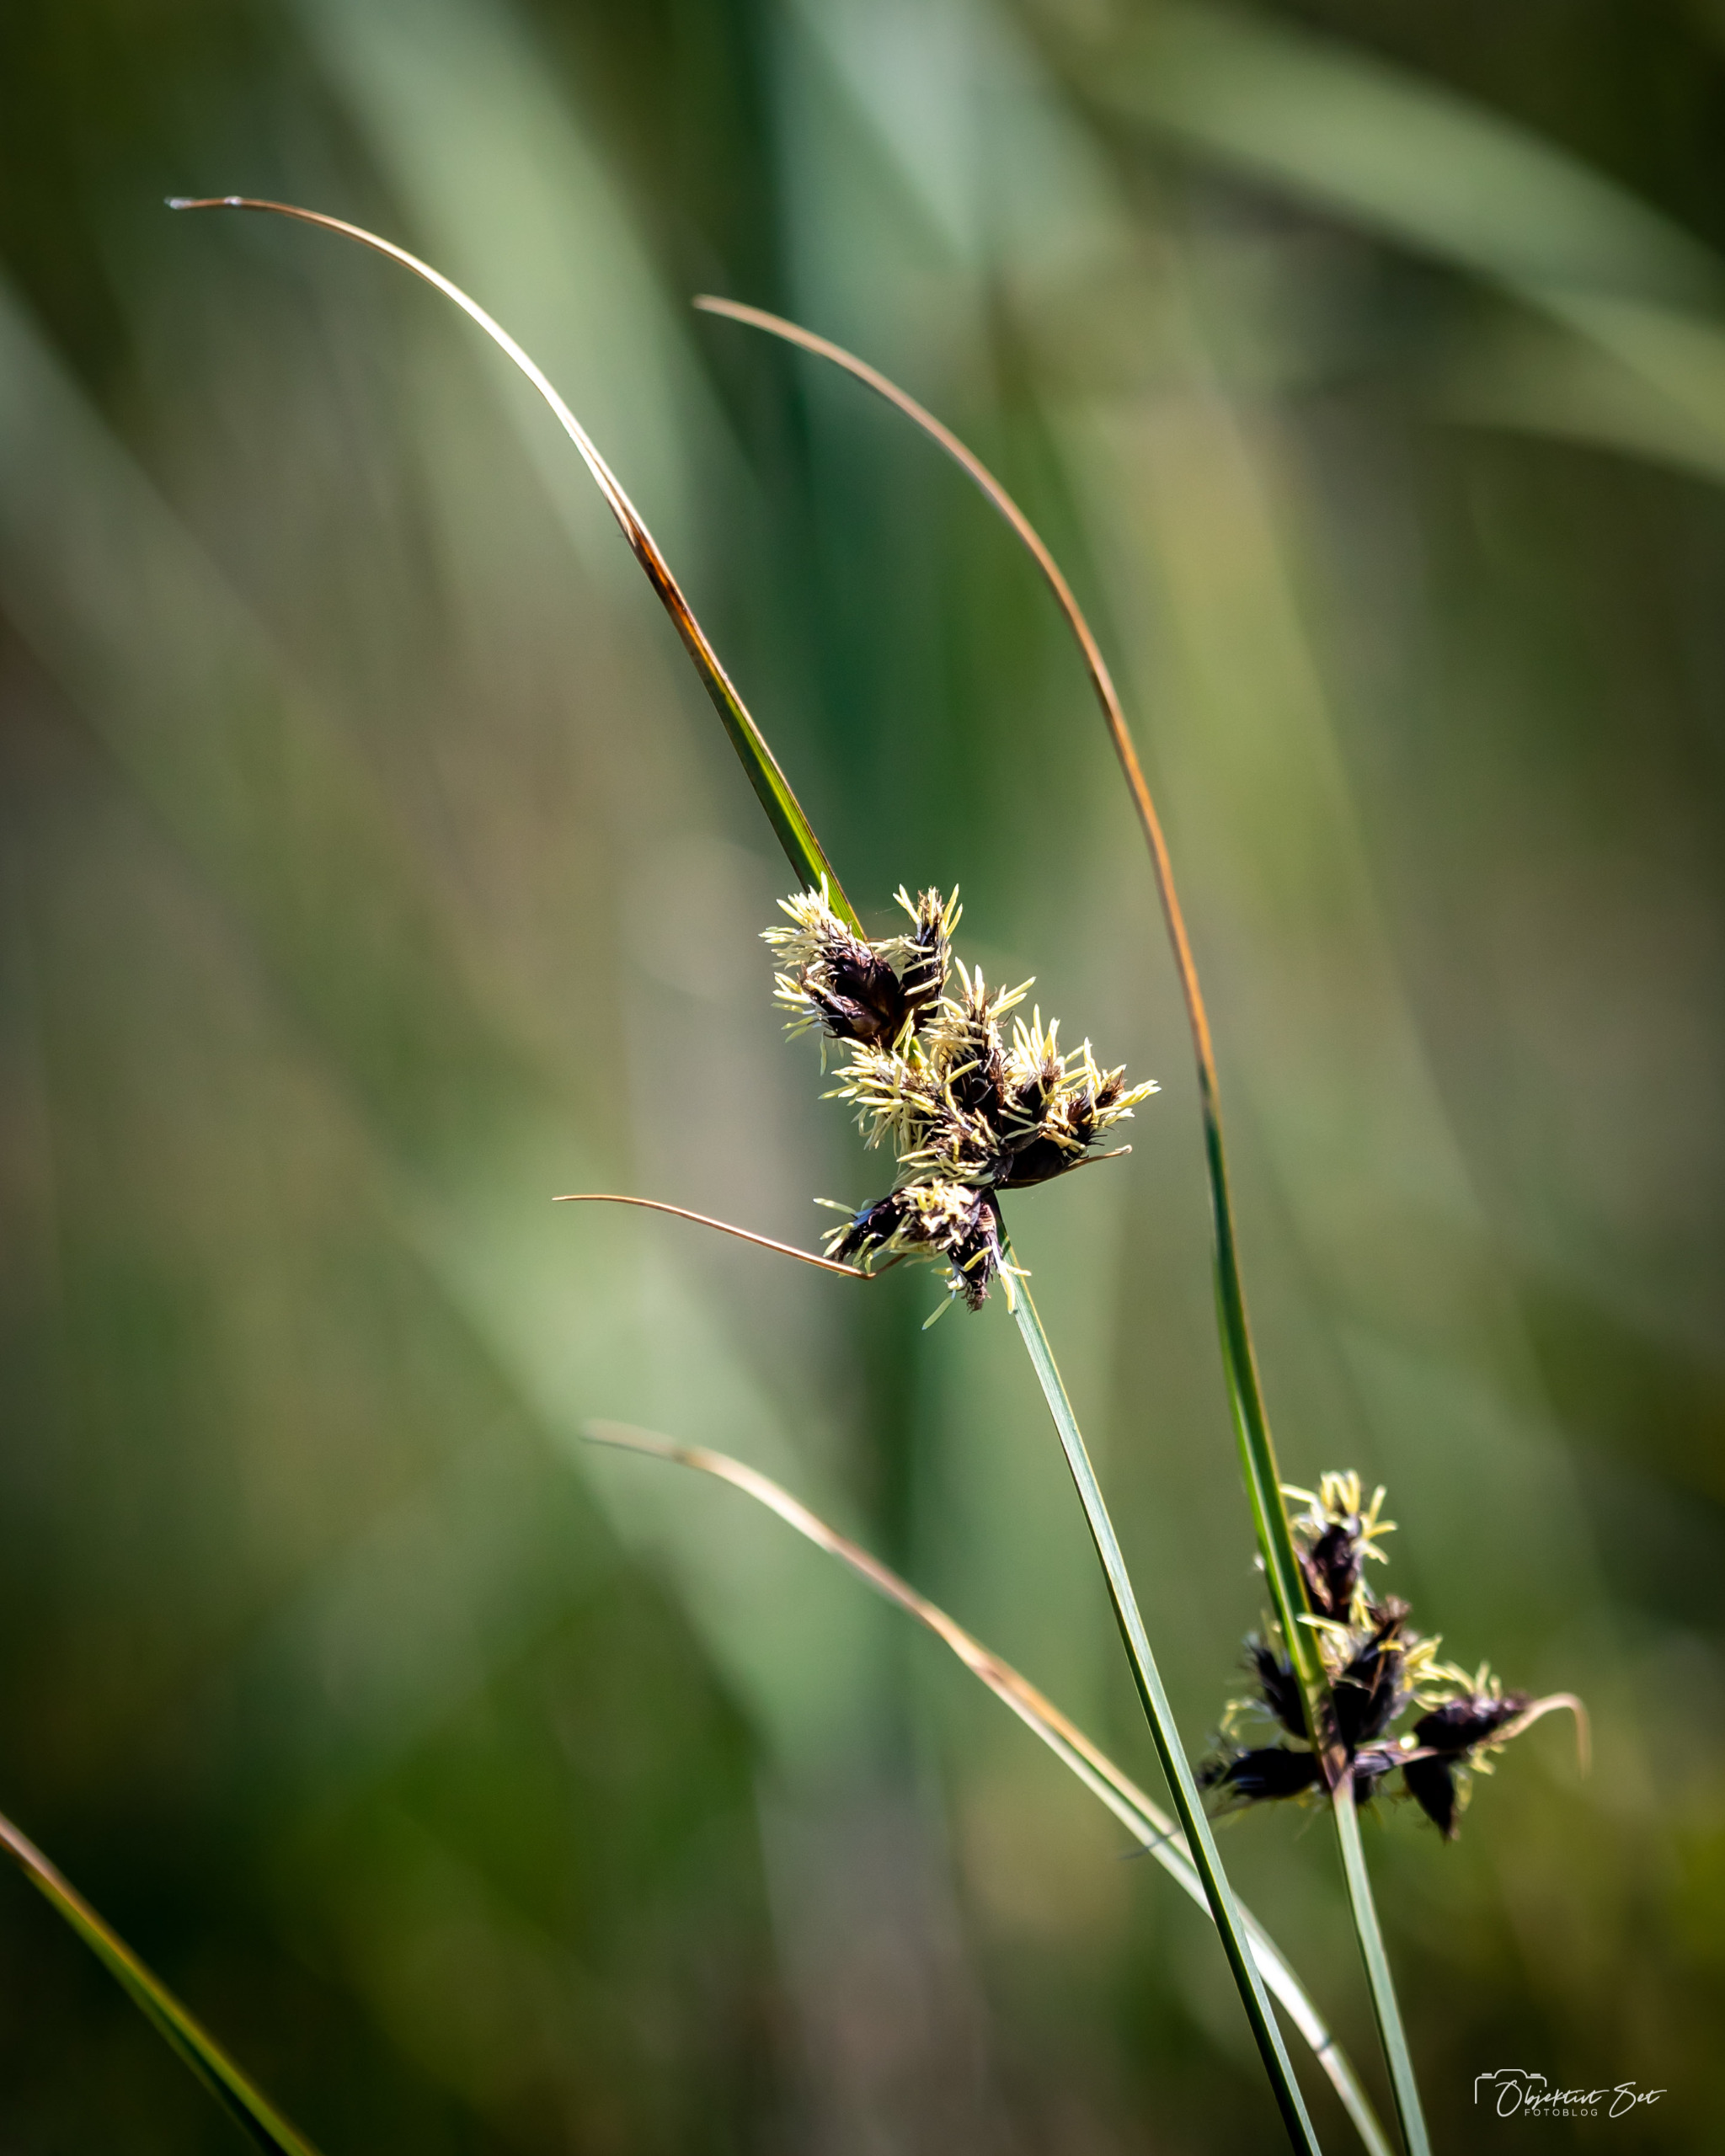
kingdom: Plantae
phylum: Tracheophyta
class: Liliopsida
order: Poales
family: Cyperaceae
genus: Bolboschoenus
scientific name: Bolboschoenus maritimus
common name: Strand-kogleaks
